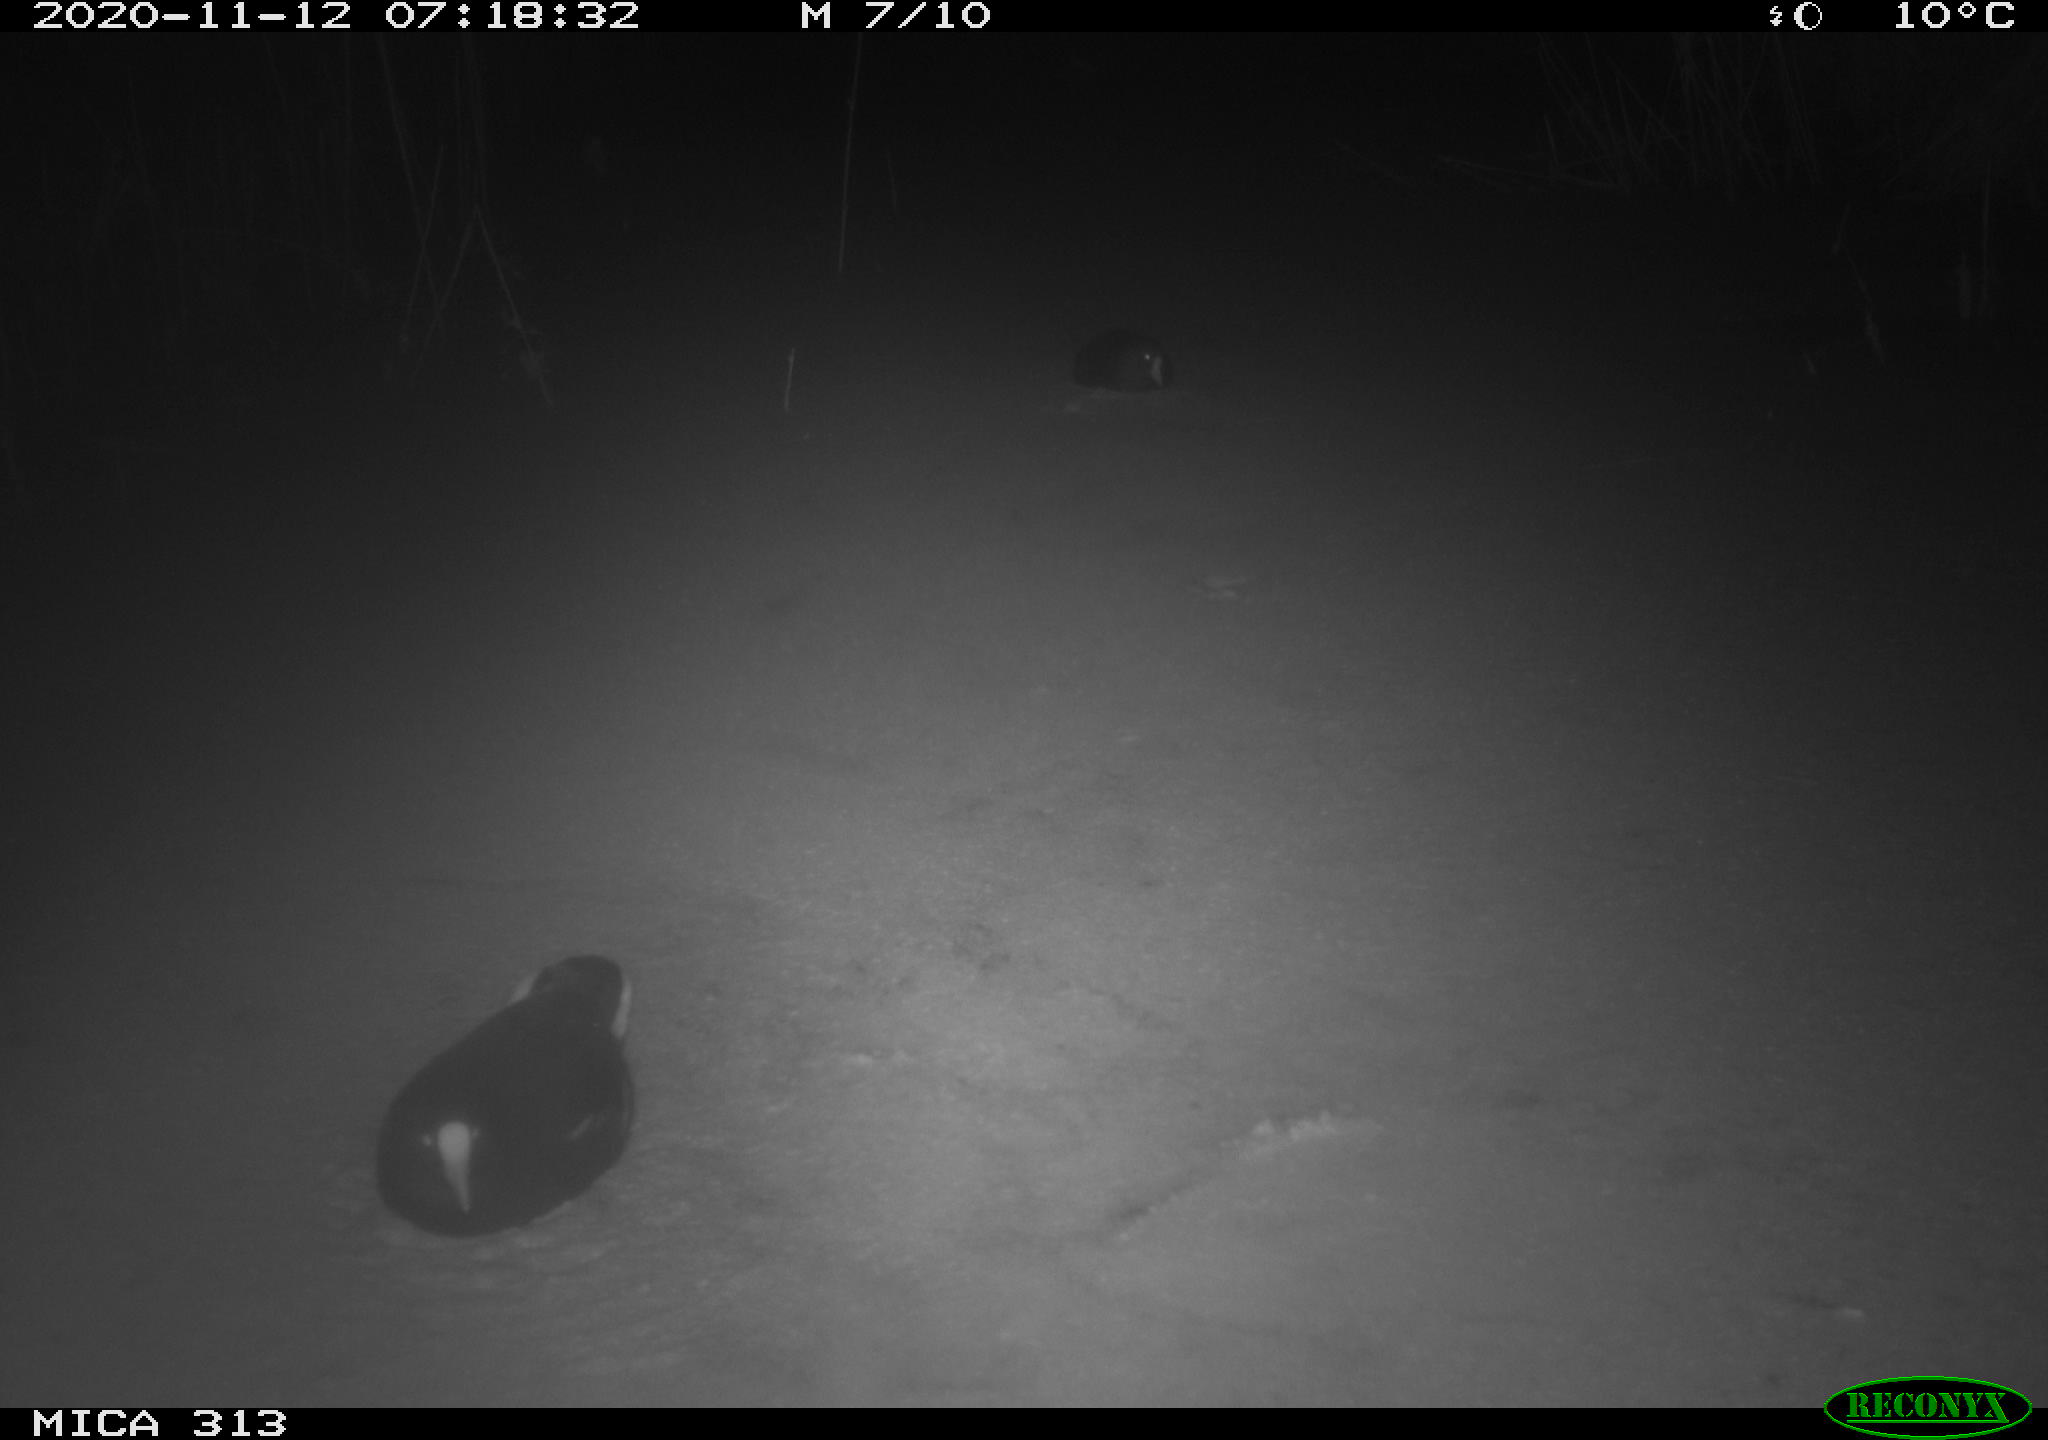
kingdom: Animalia
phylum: Chordata
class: Aves
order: Gruiformes
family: Rallidae
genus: Fulica
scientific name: Fulica atra
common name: Eurasian coot
